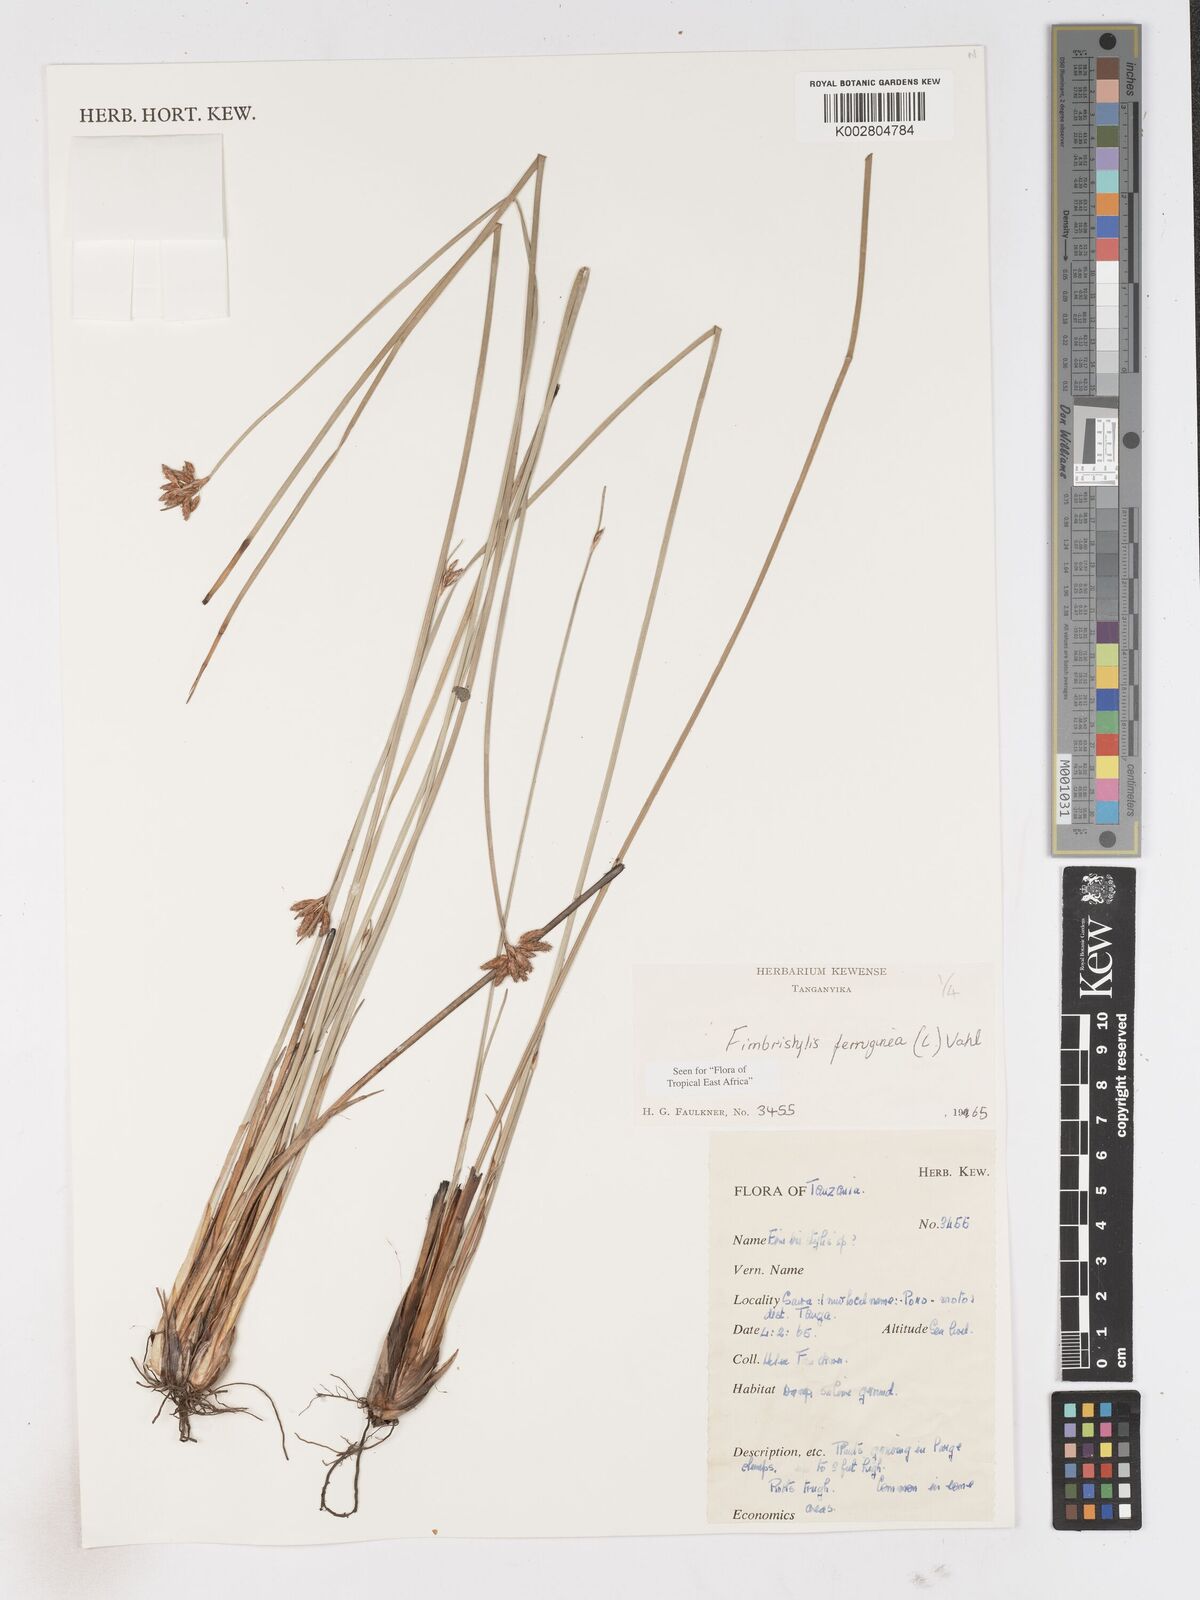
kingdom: Plantae
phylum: Tracheophyta
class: Liliopsida
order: Poales
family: Cyperaceae
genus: Fimbristylis
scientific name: Fimbristylis ferruginea
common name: West indian fimbry
